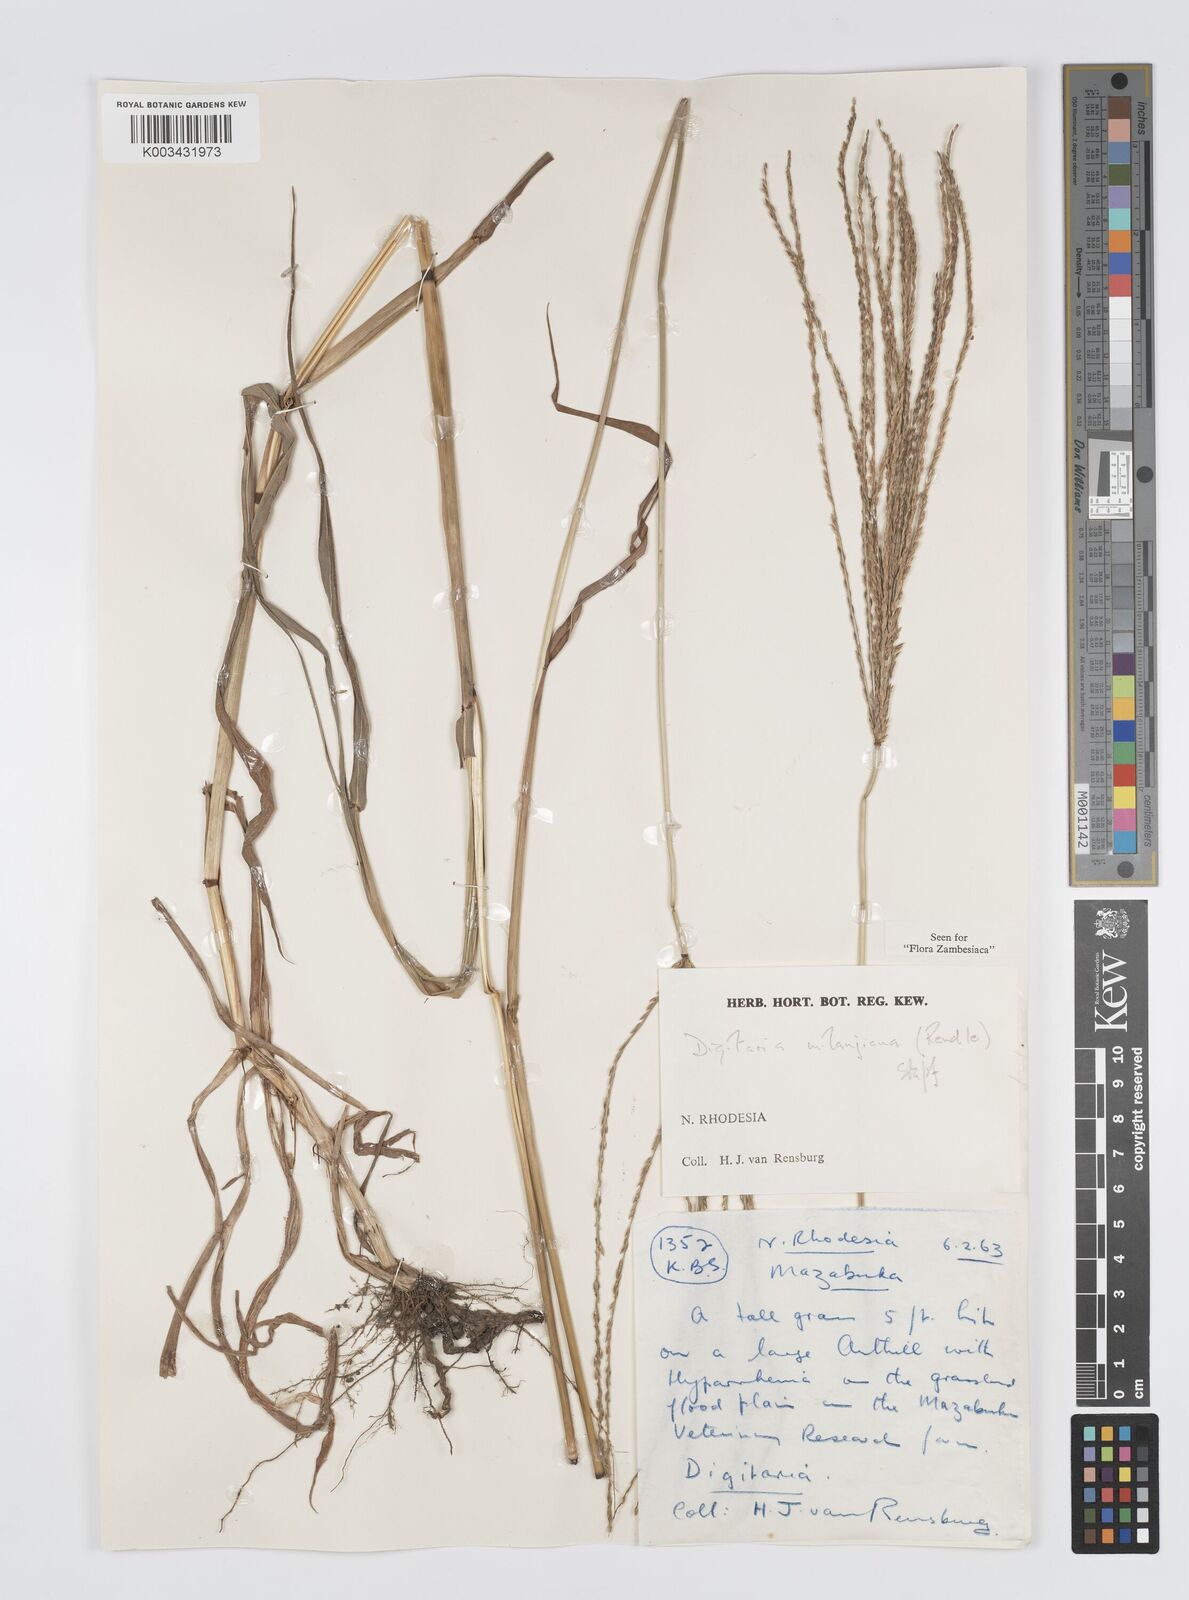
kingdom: Plantae
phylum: Tracheophyta
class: Liliopsida
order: Poales
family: Poaceae
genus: Digitaria
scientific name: Digitaria milanjiana
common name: Madagascar crabgrass
